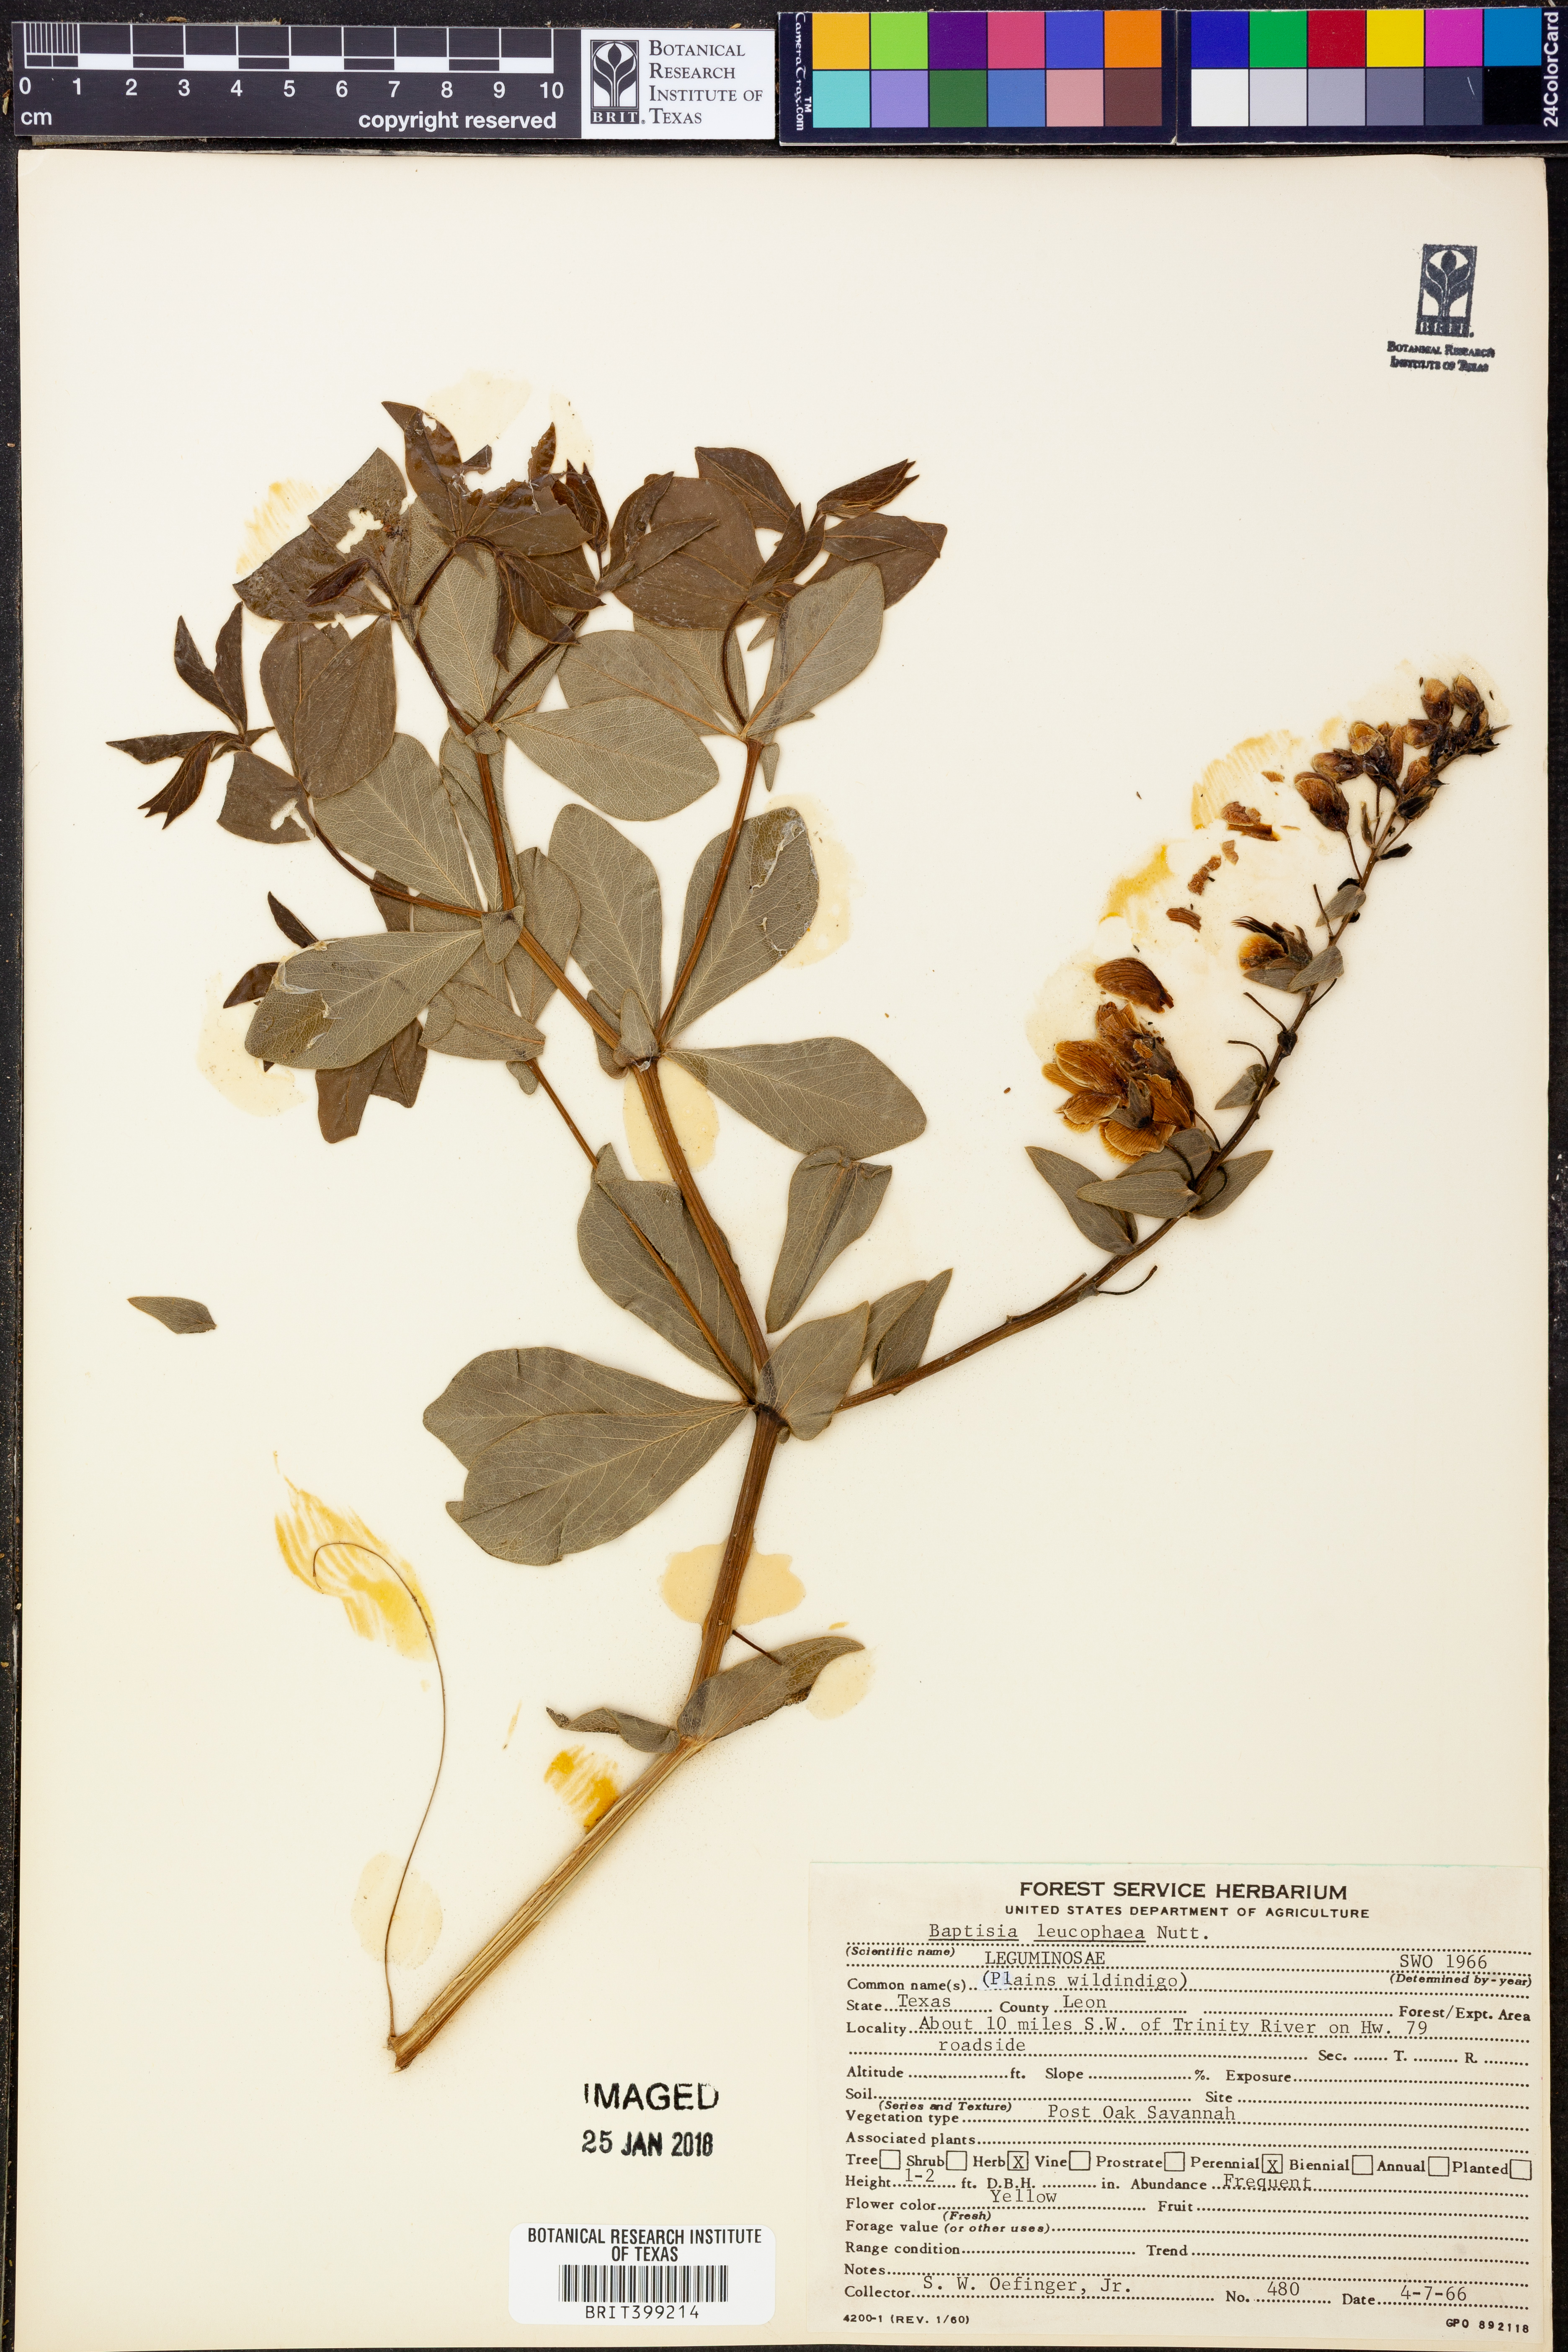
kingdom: Plantae
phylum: Tracheophyta
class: Magnoliopsida
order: Fabales
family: Fabaceae
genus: Baptisia
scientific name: Baptisia bracteata
